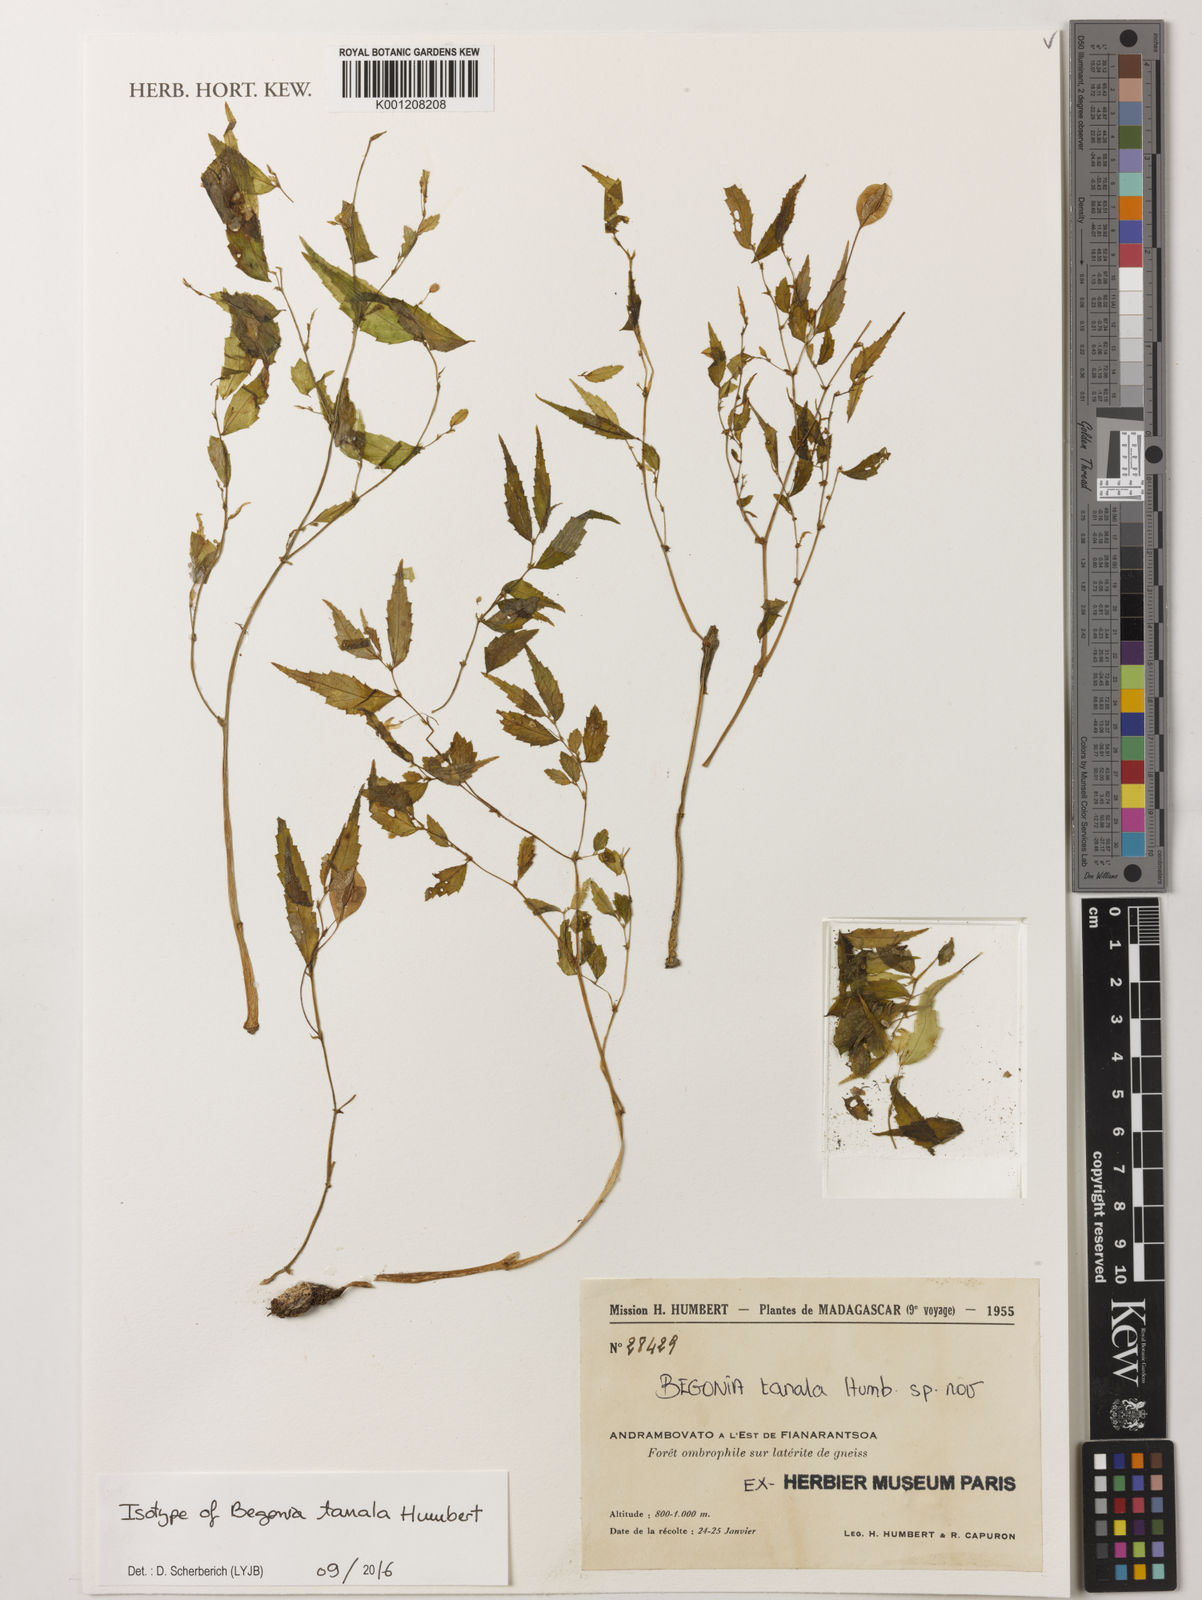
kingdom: Plantae
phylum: Tracheophyta
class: Magnoliopsida
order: Cucurbitales
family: Begoniaceae
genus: Begonia
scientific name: Begonia tanala
